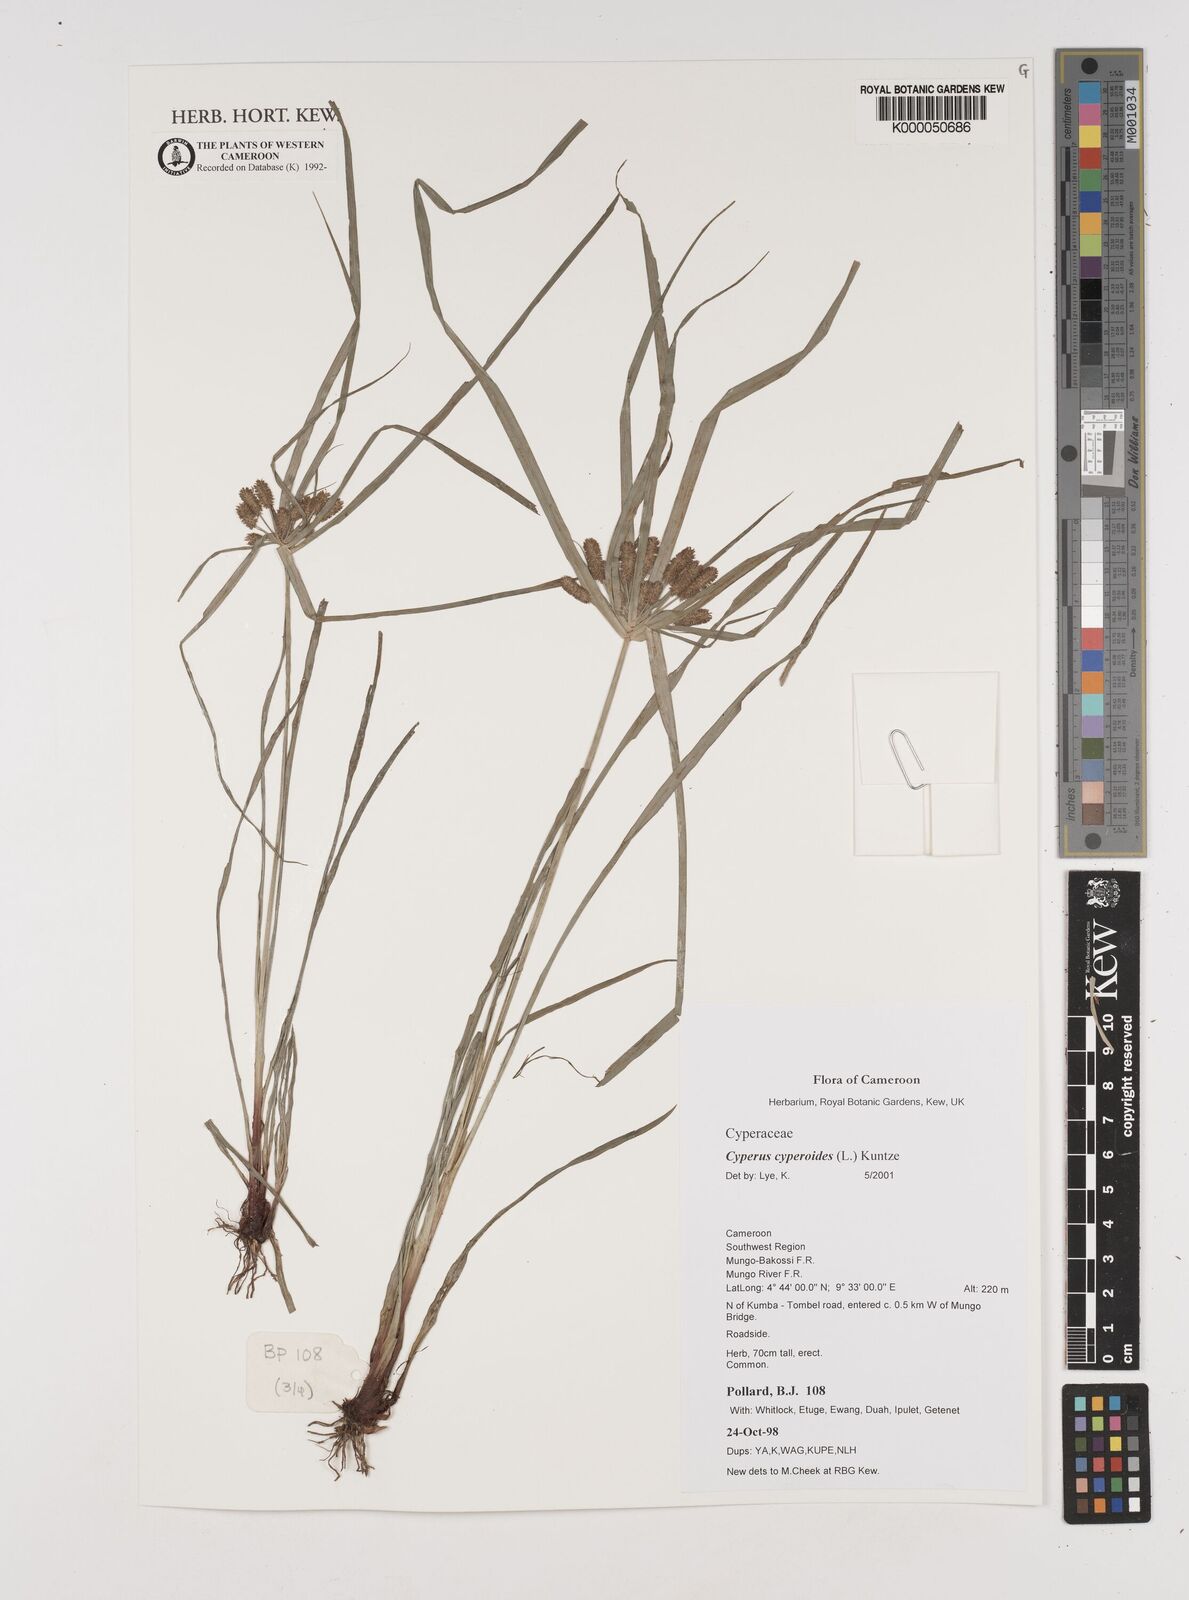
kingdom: Plantae
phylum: Tracheophyta
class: Liliopsida
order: Poales
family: Cyperaceae
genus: Cyperus
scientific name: Cyperus cyperoides
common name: Pacific island flat sedge
